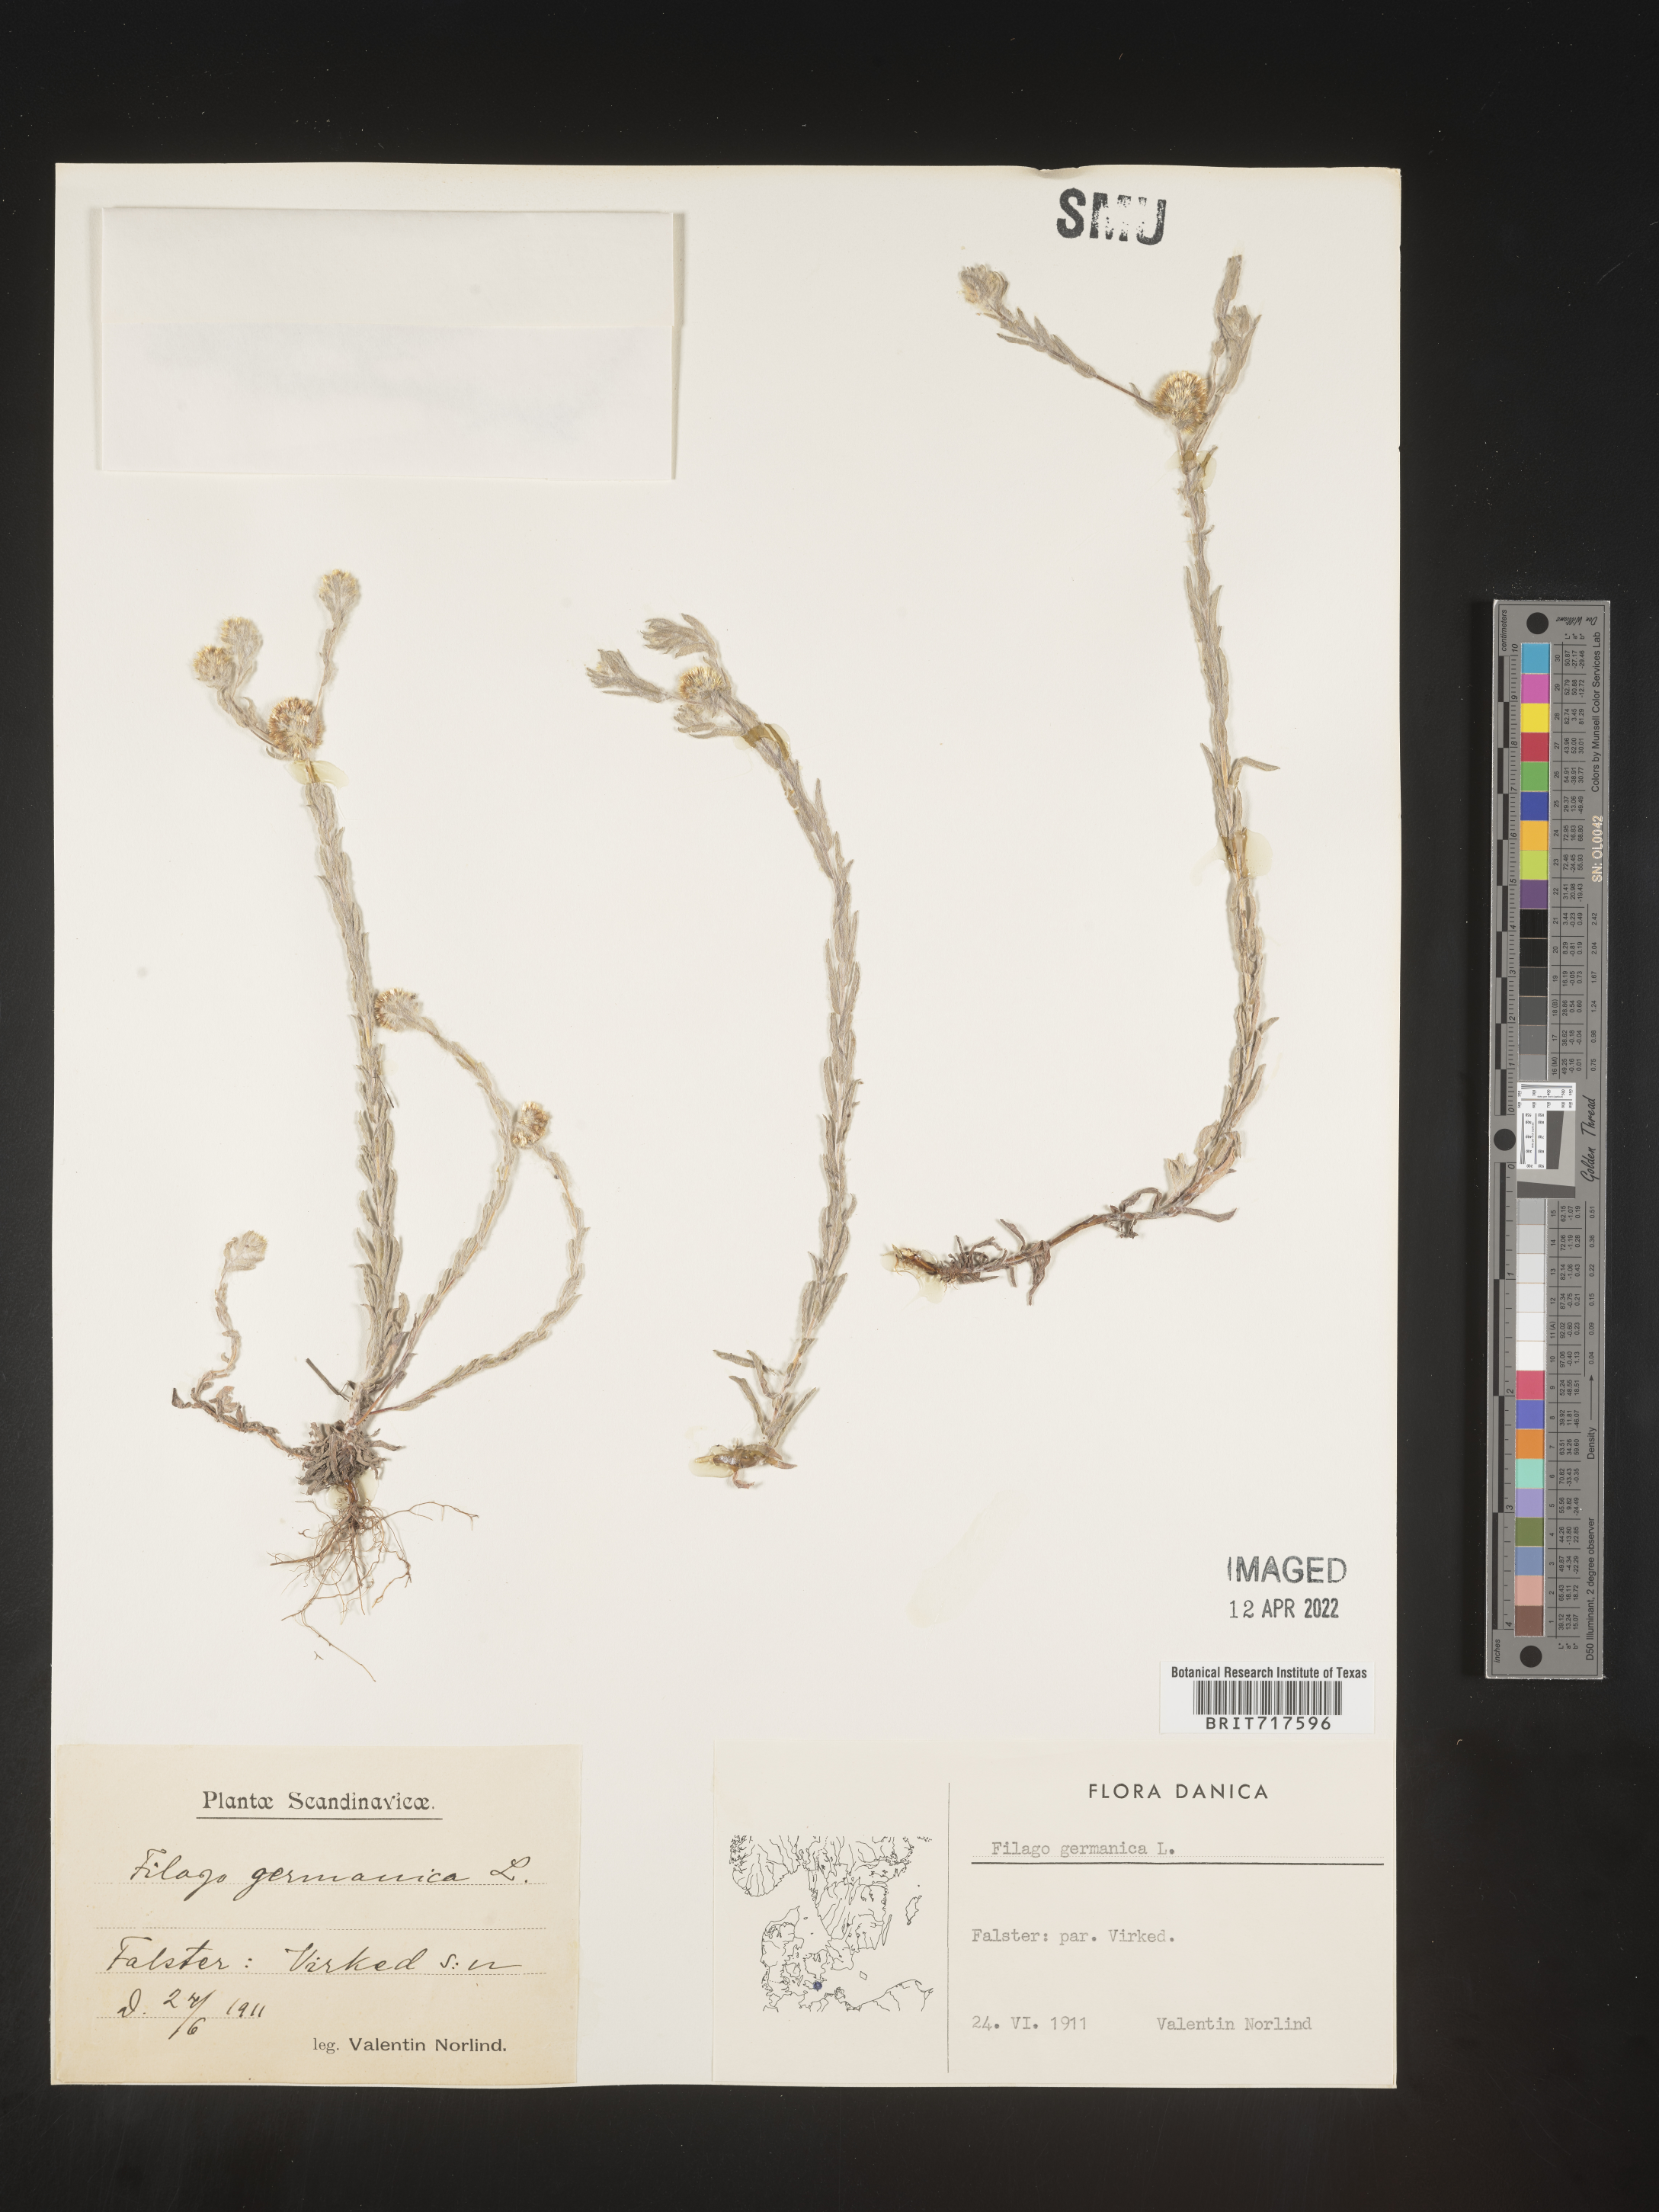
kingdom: Plantae
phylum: Tracheophyta
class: Magnoliopsida
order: Asterales
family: Asteraceae
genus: Filago
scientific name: Filago
